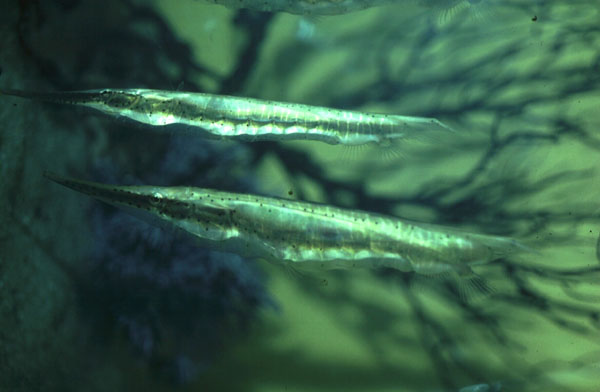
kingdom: Animalia
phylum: Chordata
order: Syngnathiformes
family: Centriscidae
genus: Aeoliscus
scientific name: Aeoliscus punctulatus
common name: Razorfish
